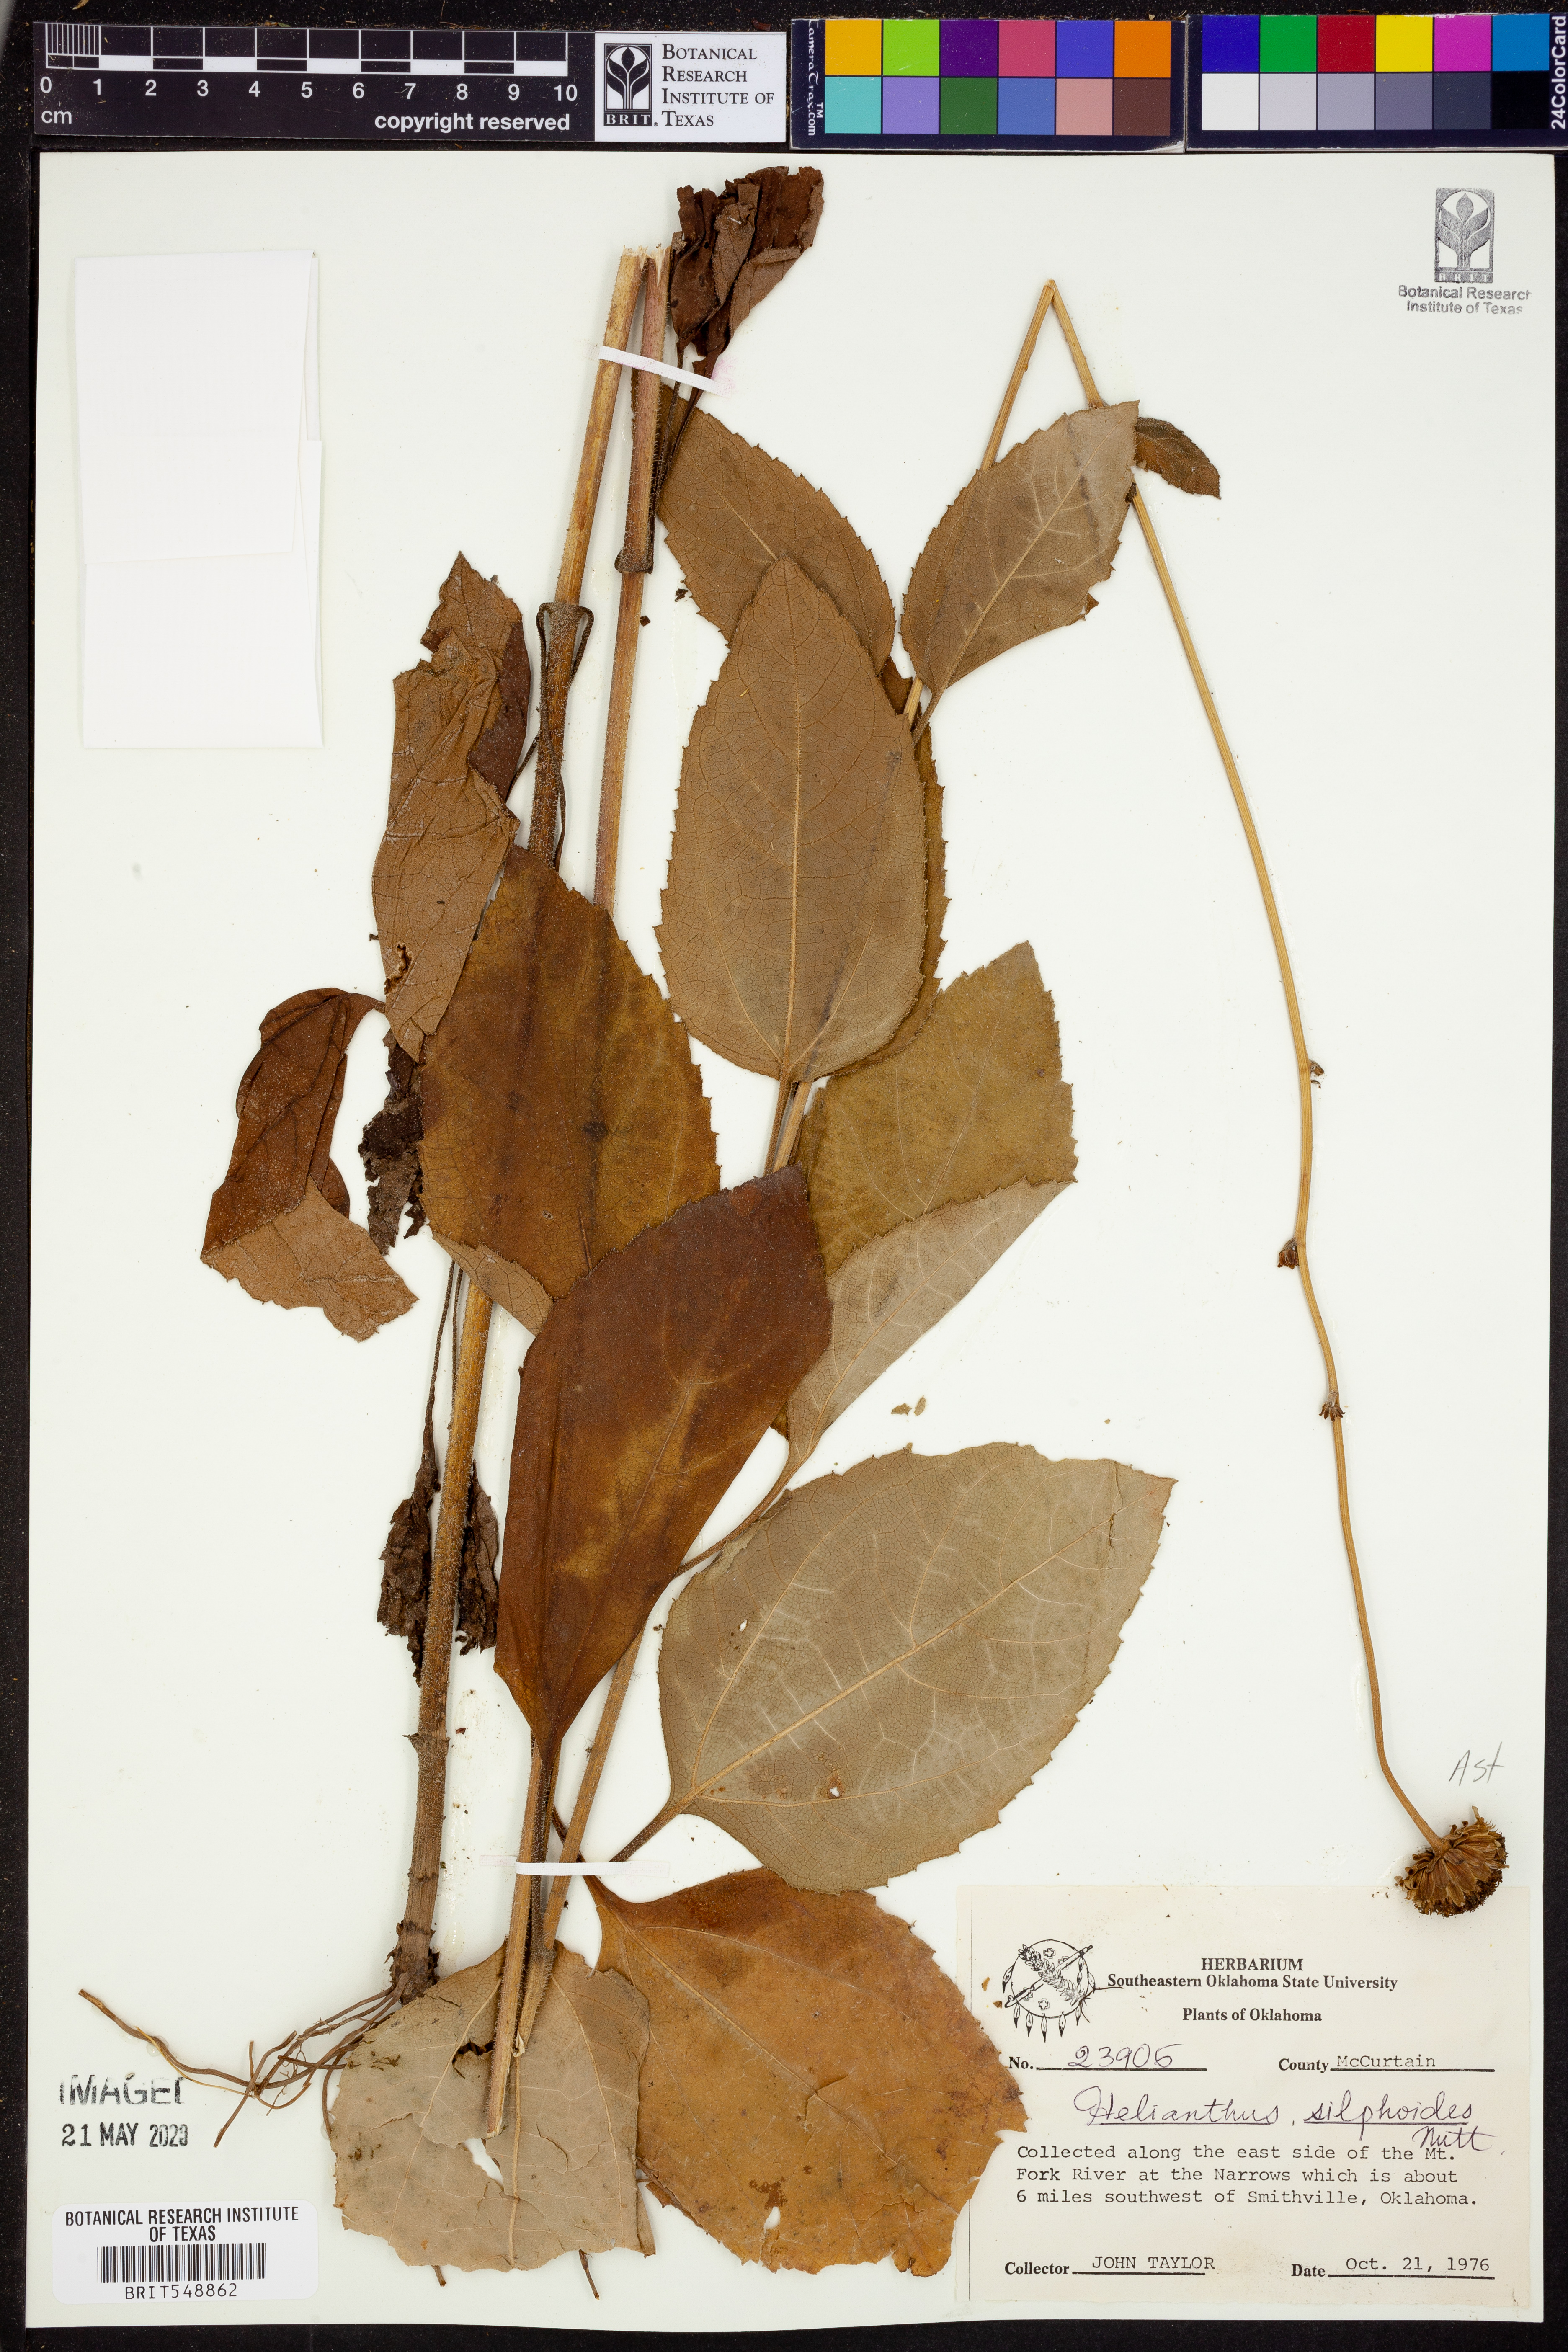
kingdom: Plantae
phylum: Tracheophyta
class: Magnoliopsida
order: Asterales
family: Asteraceae
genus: Helianthus
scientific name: Helianthus silphioides
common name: Odorous sunflower
